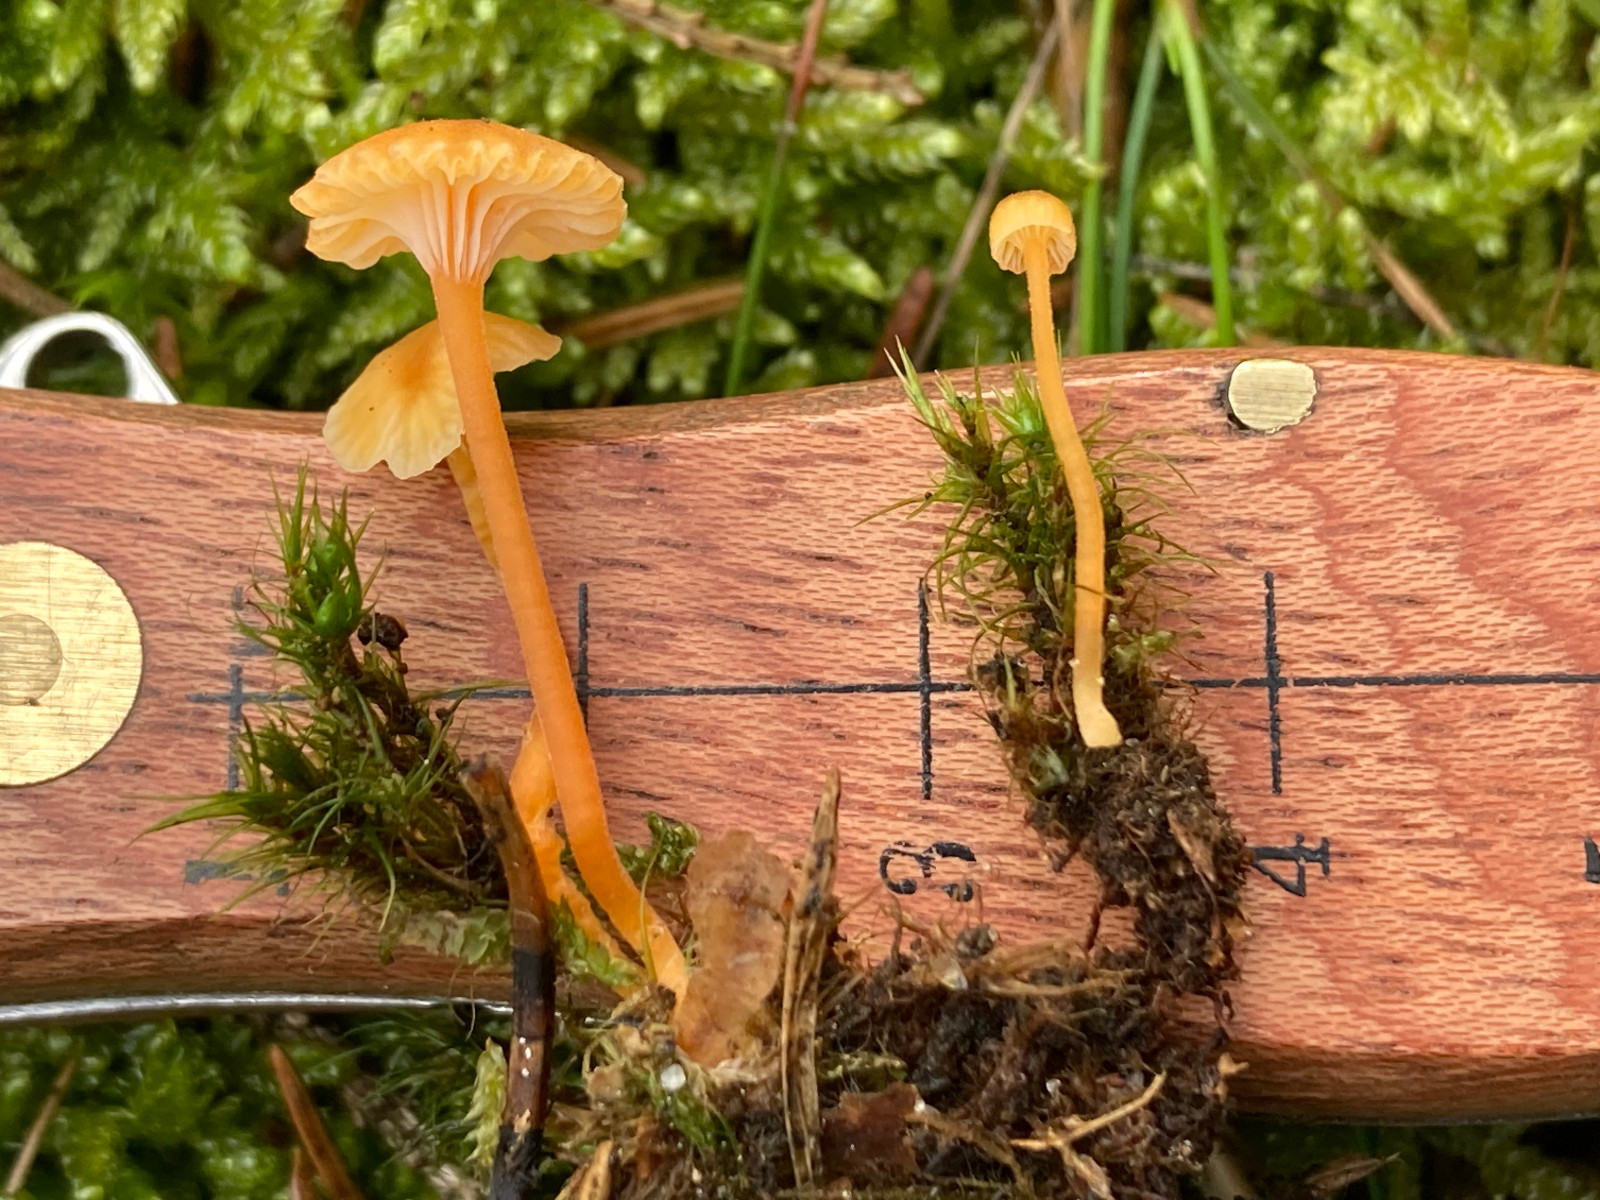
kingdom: Fungi
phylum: Basidiomycota
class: Agaricomycetes
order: Hymenochaetales
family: Rickenellaceae
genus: Rickenella
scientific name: Rickenella fibula
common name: orange mosnavlehat
